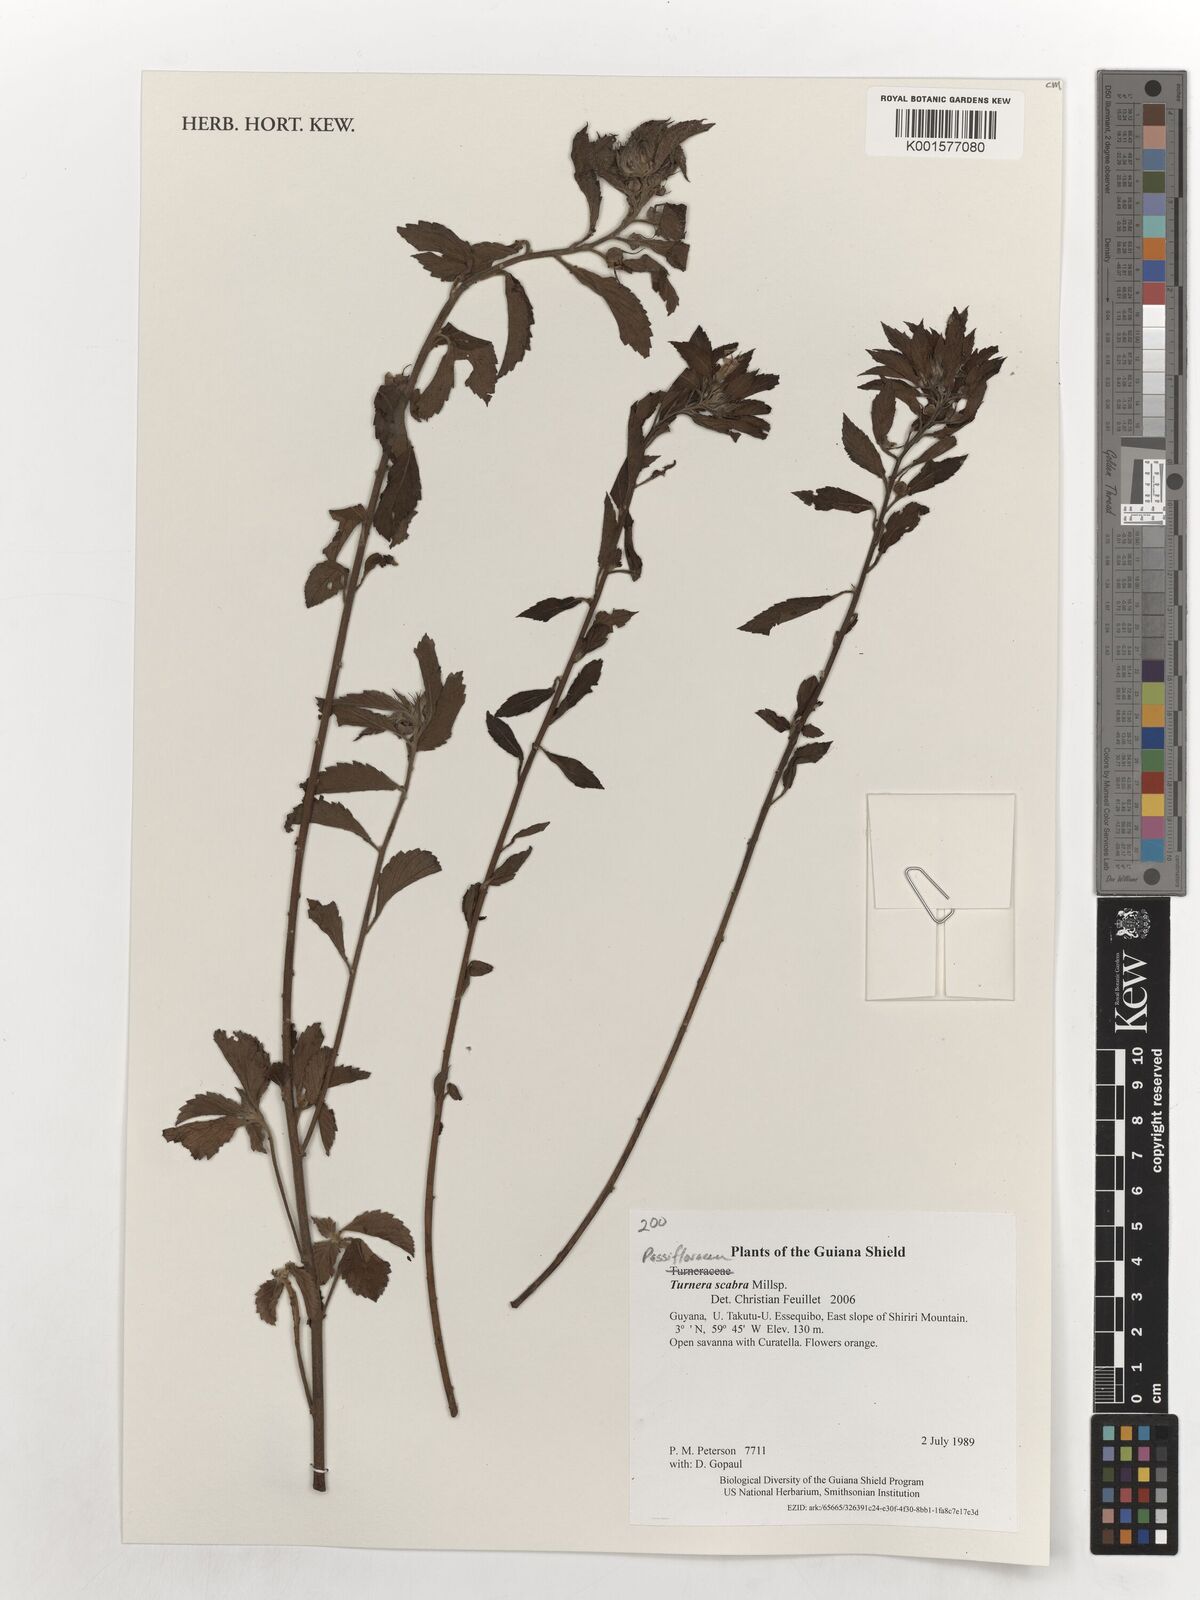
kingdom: Plantae
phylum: Tracheophyta
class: Magnoliopsida
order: Malpighiales
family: Turneraceae
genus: Turnera
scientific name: Turnera scabra
